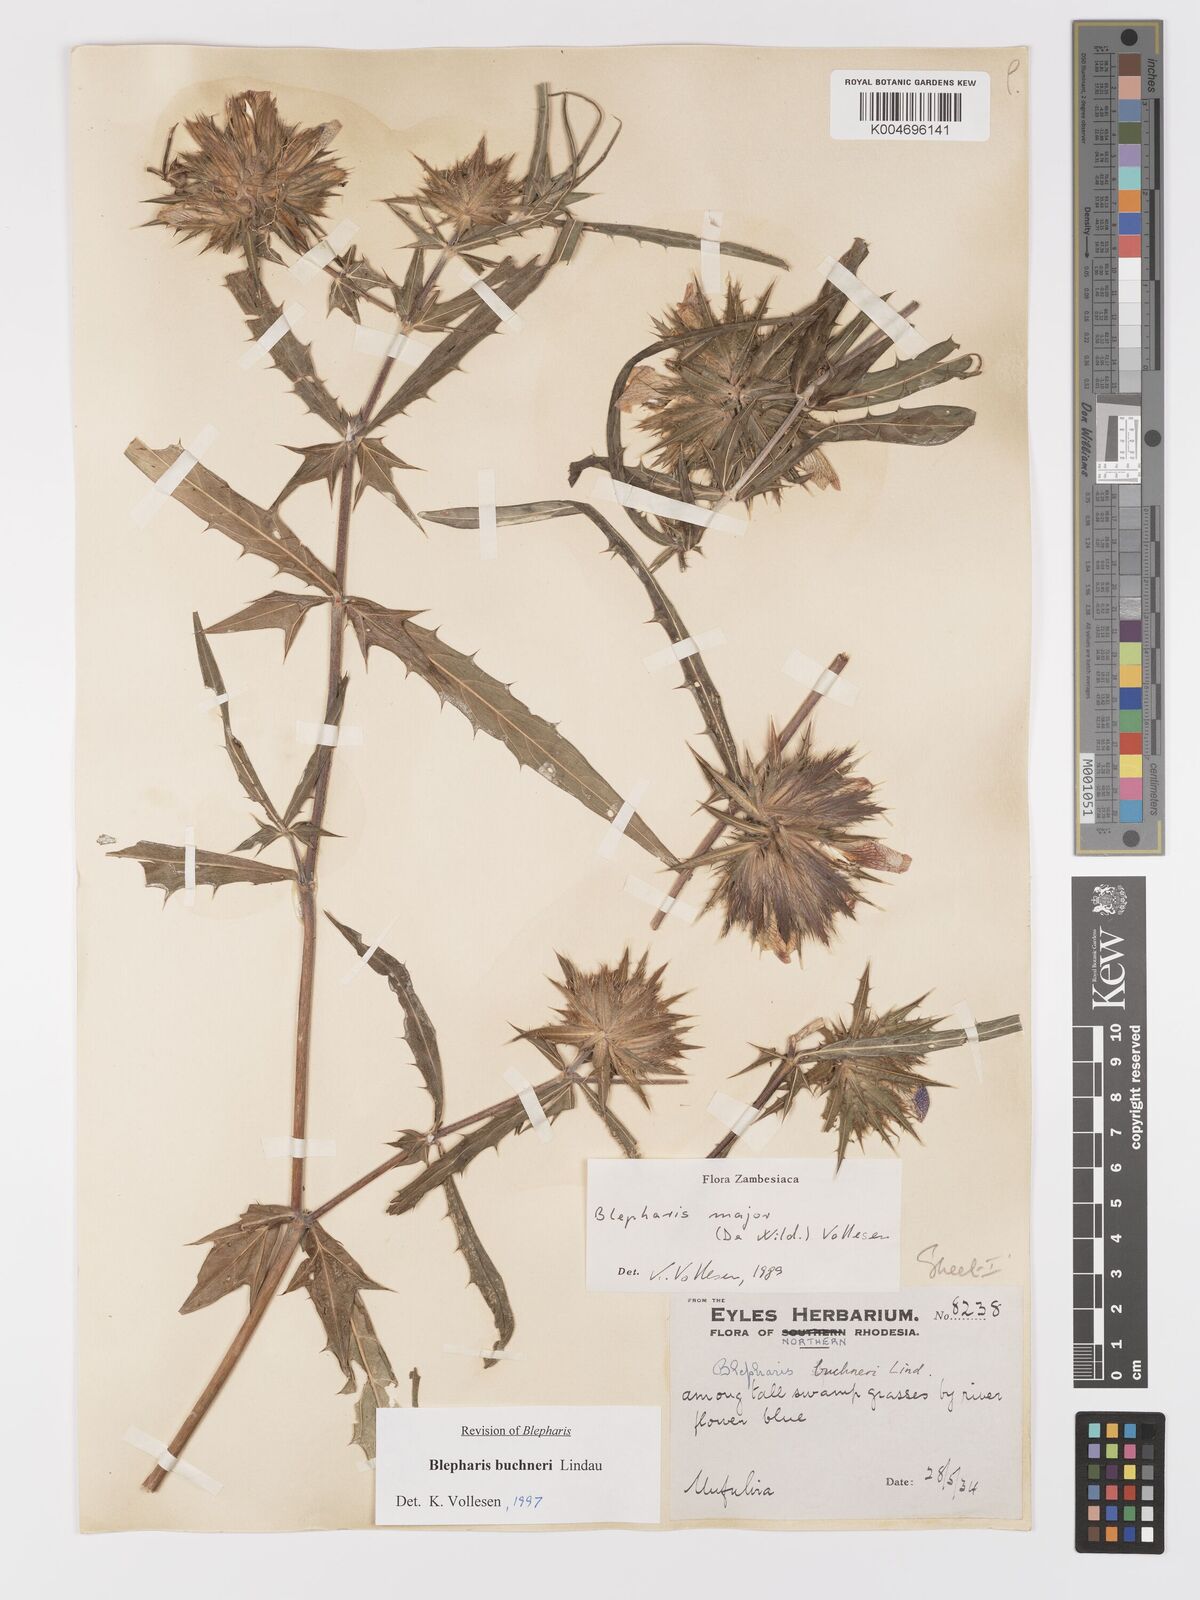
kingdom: Plantae
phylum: Tracheophyta
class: Magnoliopsida
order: Lamiales
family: Acanthaceae
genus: Blepharis
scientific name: Blepharis buchneri
